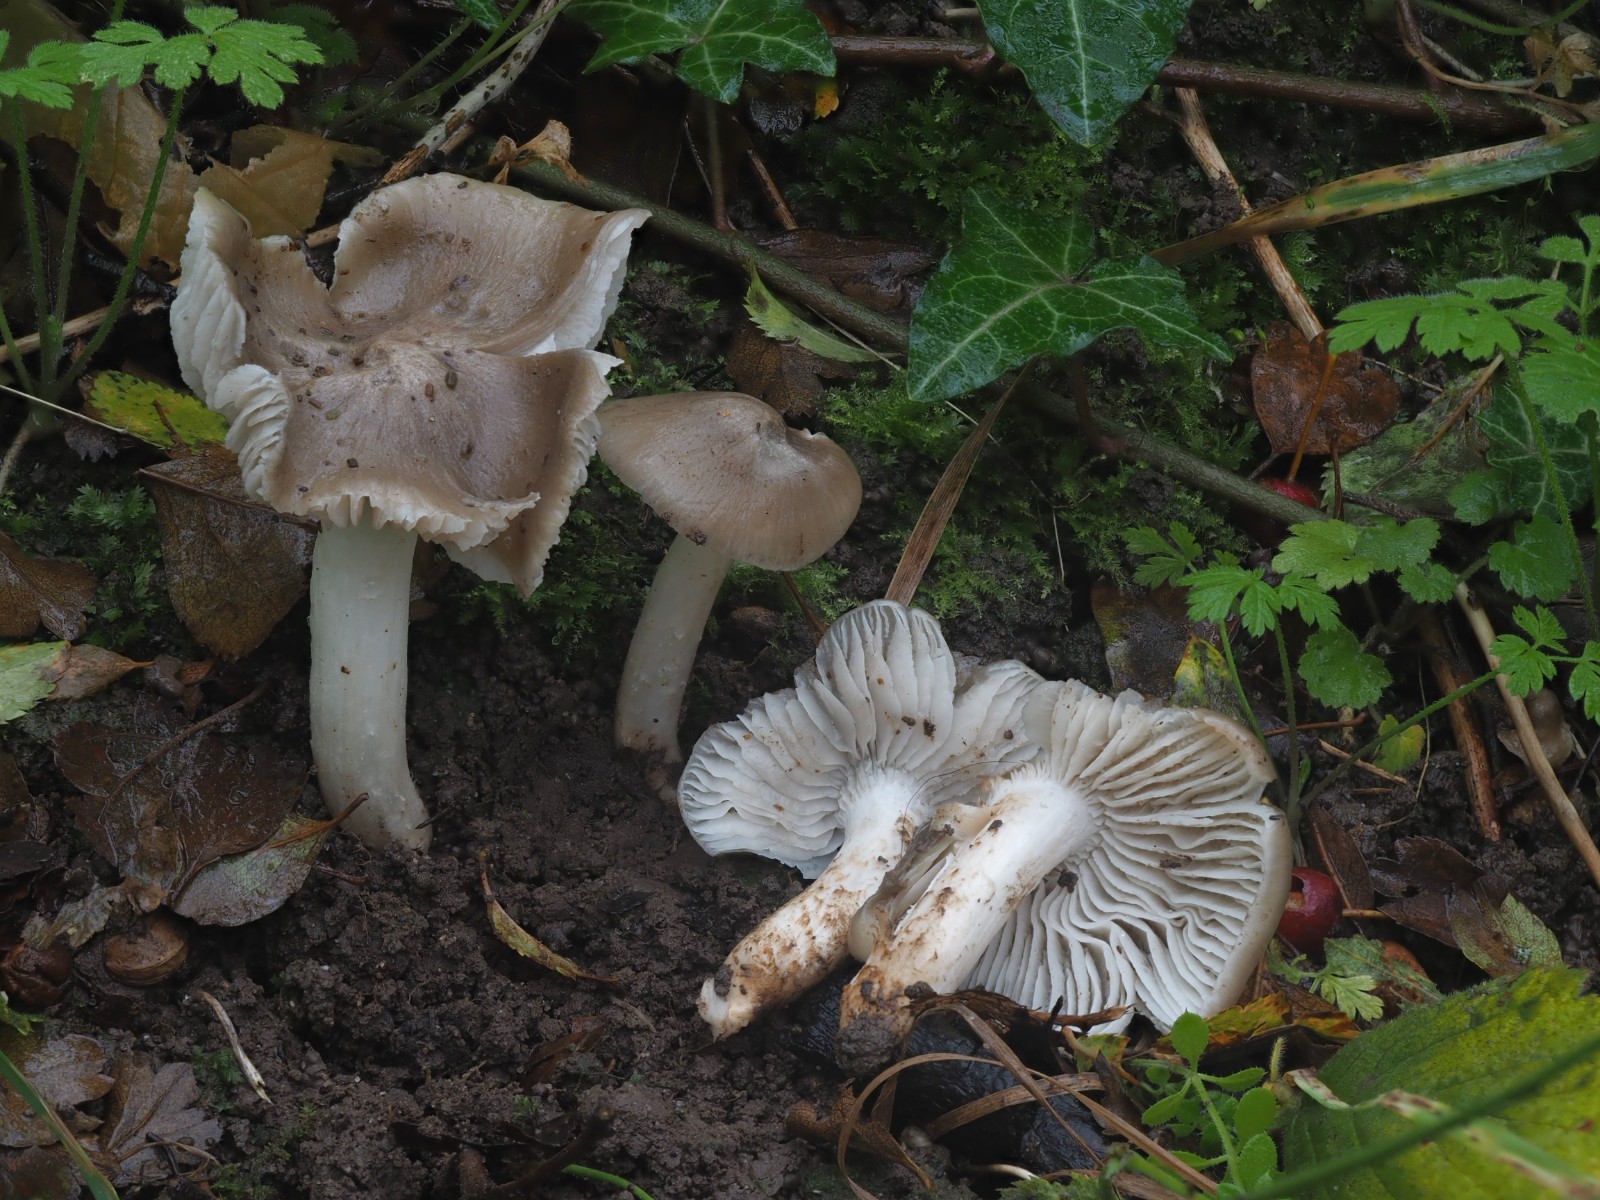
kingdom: Fungi
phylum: Basidiomycota
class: Agaricomycetes
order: Agaricales
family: Hygrophoraceae
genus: Cuphophyllus
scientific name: Cuphophyllus fornicatus
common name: gråbrun vokshat
